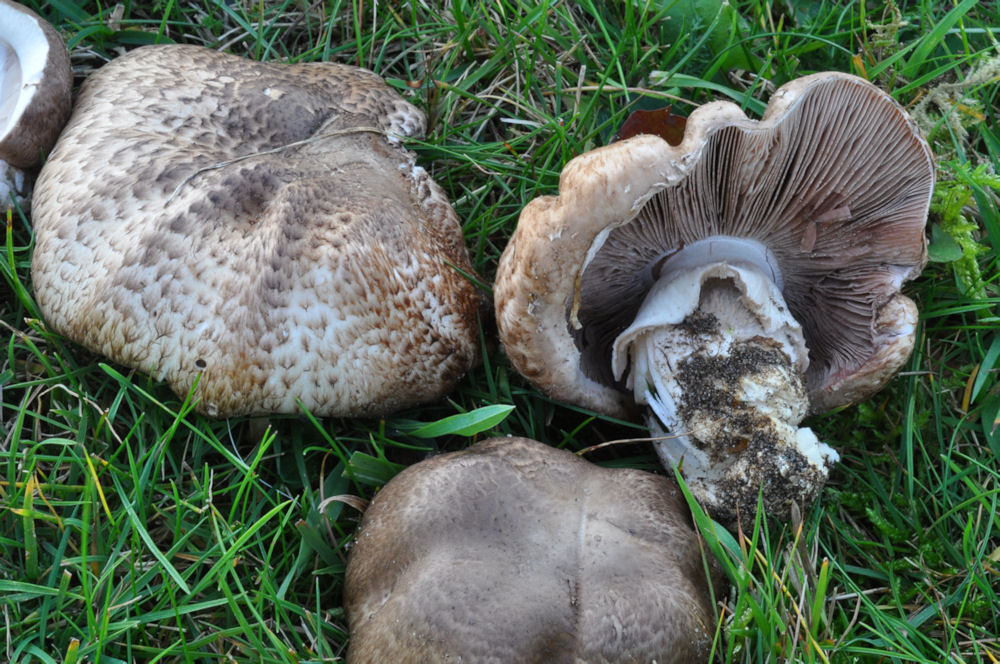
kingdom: Fungi
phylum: Basidiomycota
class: Agaricomycetes
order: Agaricales
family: Agaricaceae
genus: Agaricus
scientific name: Agaricus subperonatus
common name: knippe-champignon
